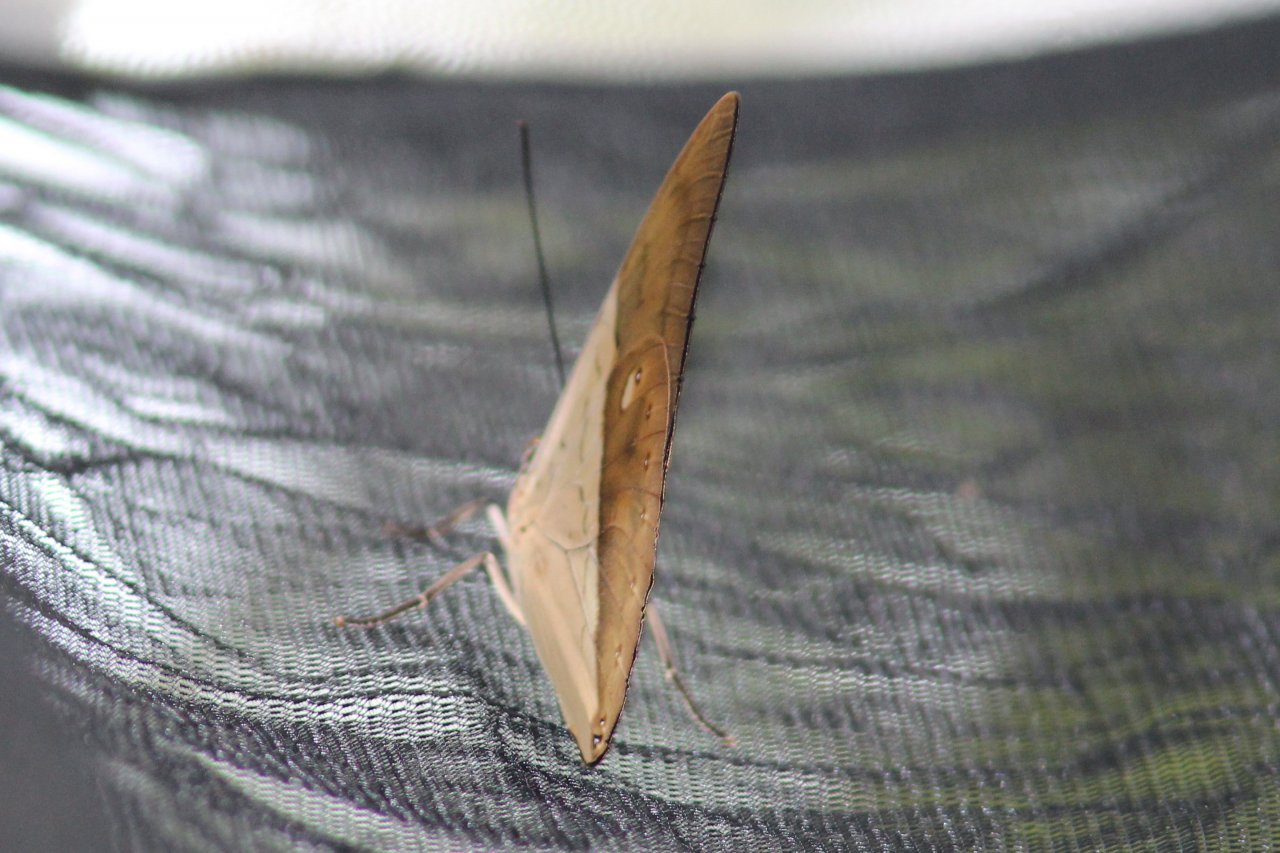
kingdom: Animalia
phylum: Arthropoda
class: Insecta
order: Lepidoptera
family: Nymphalidae
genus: Prepona
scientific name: Prepona meander
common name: White-spotted Prepona
